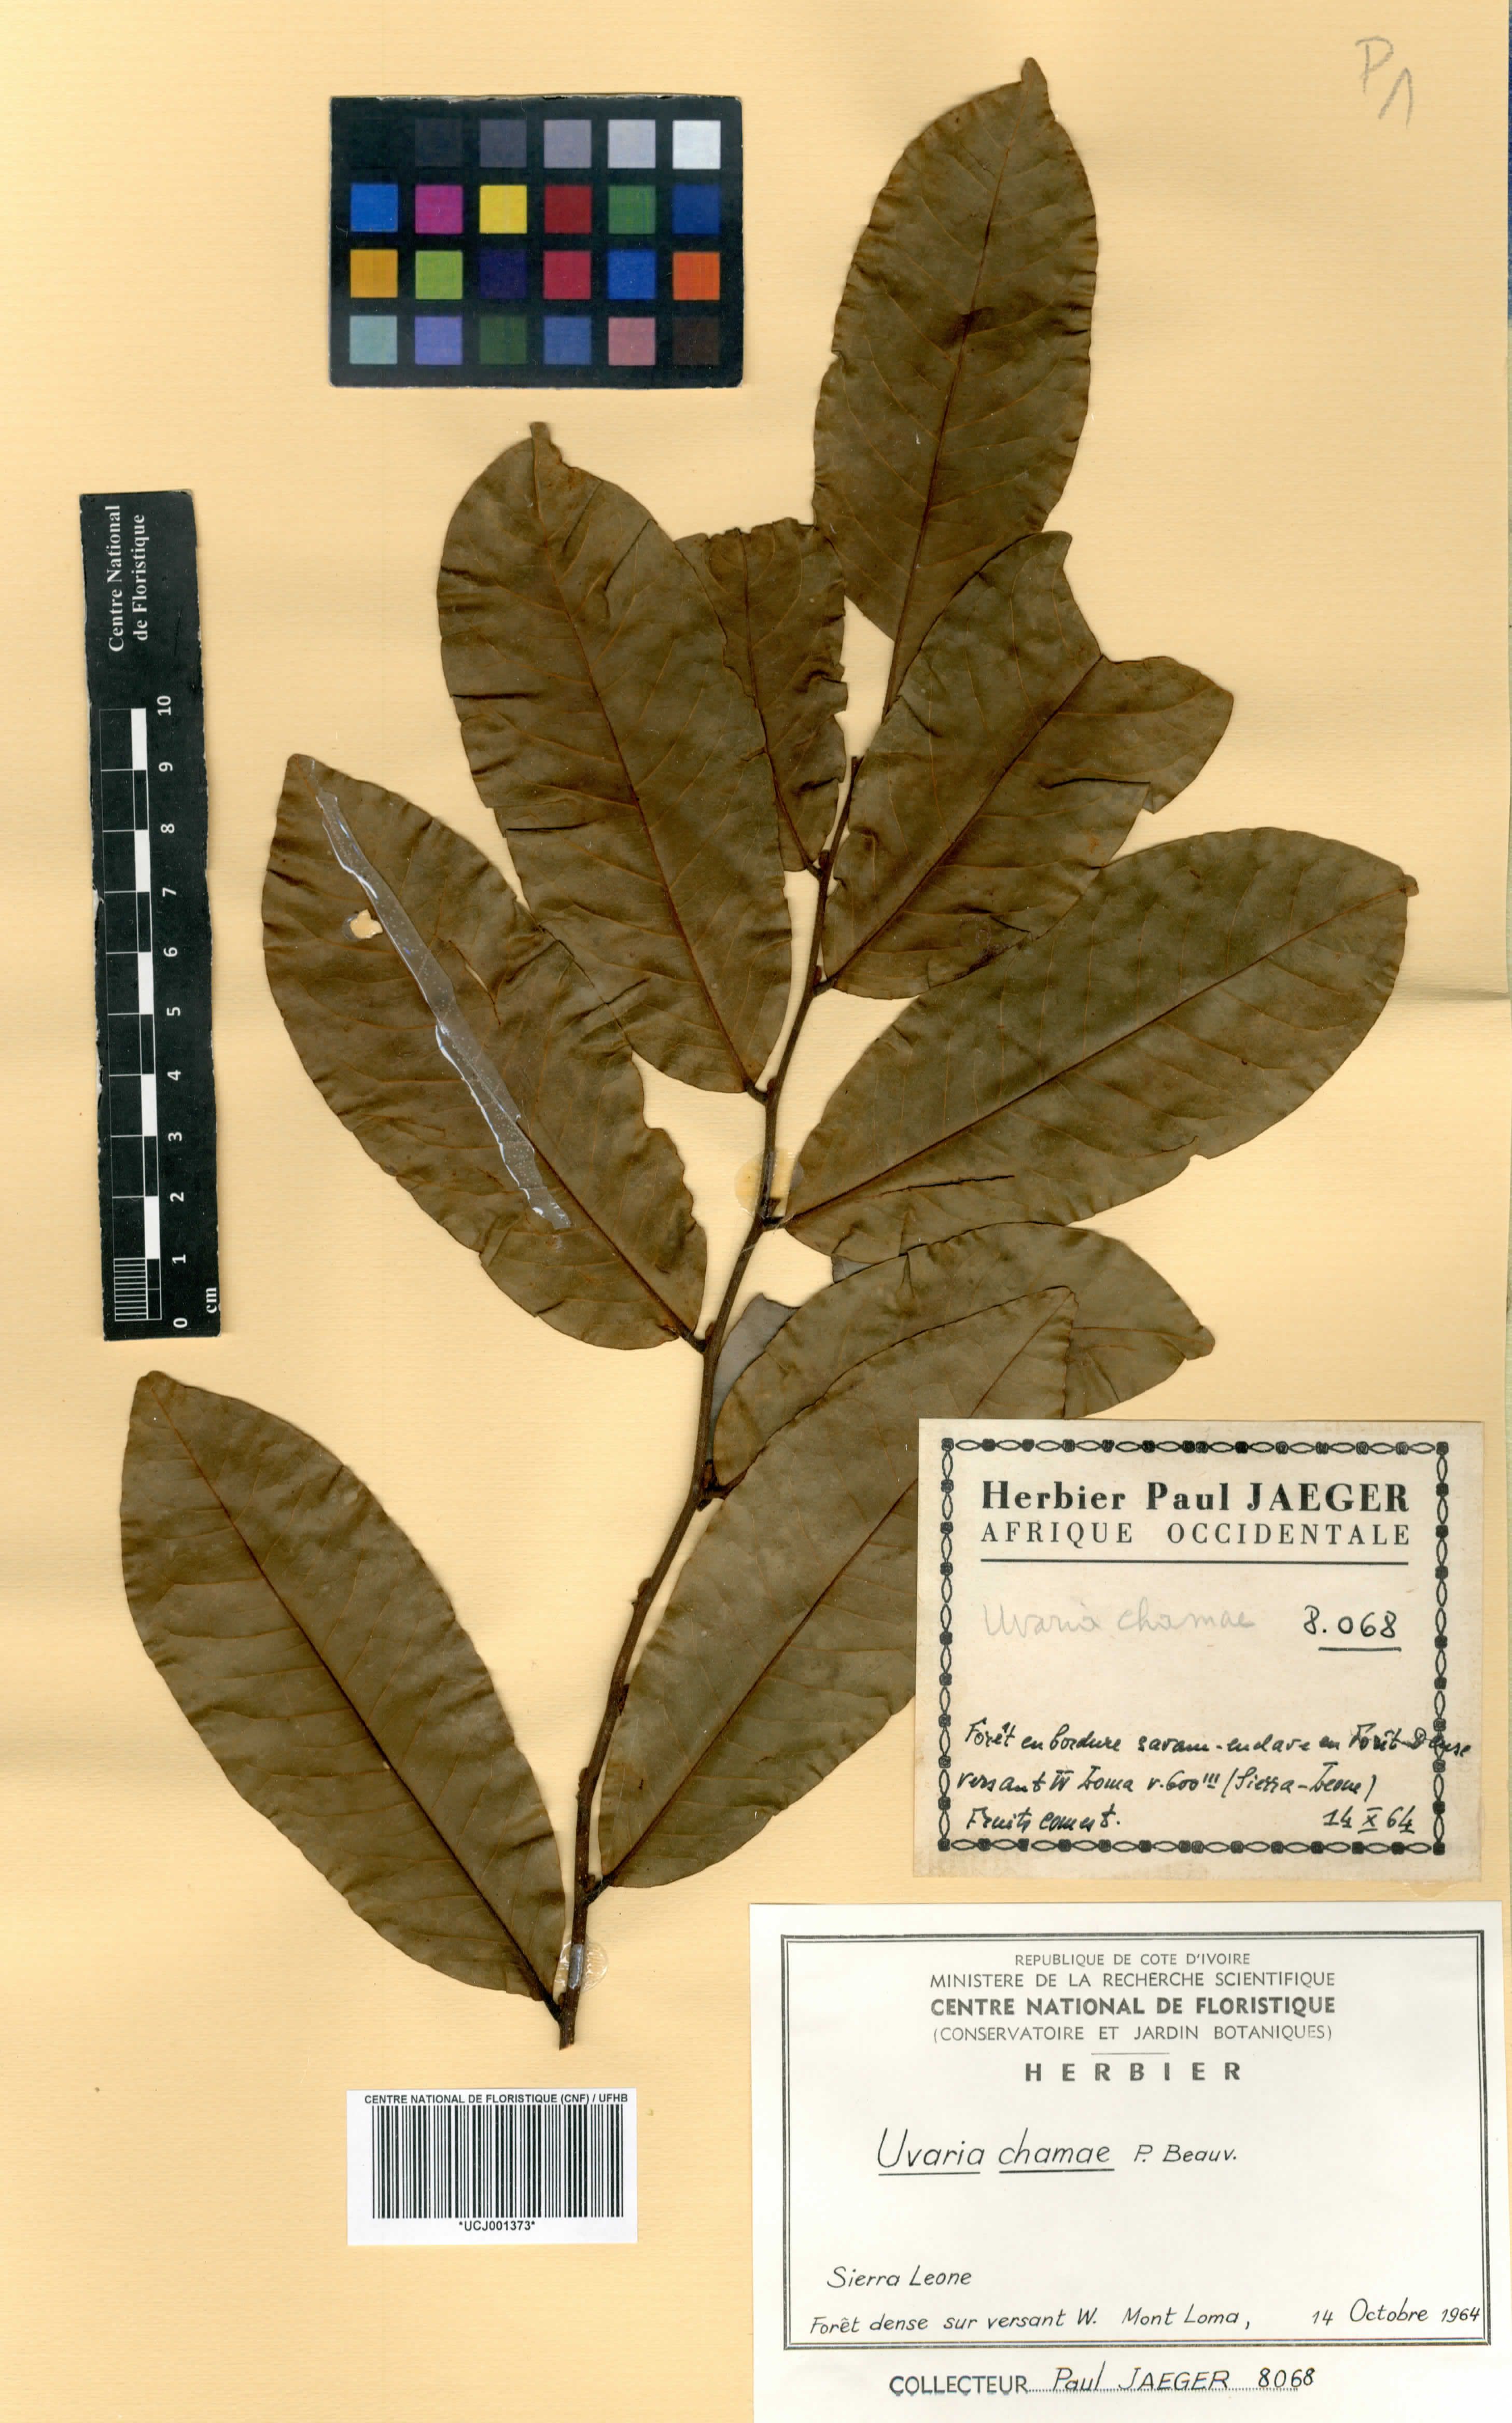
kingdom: Plantae
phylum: Tracheophyta
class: Magnoliopsida
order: Magnoliales
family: Annonaceae
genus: Uvaria
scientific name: Uvaria chamae
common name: Finger-root
